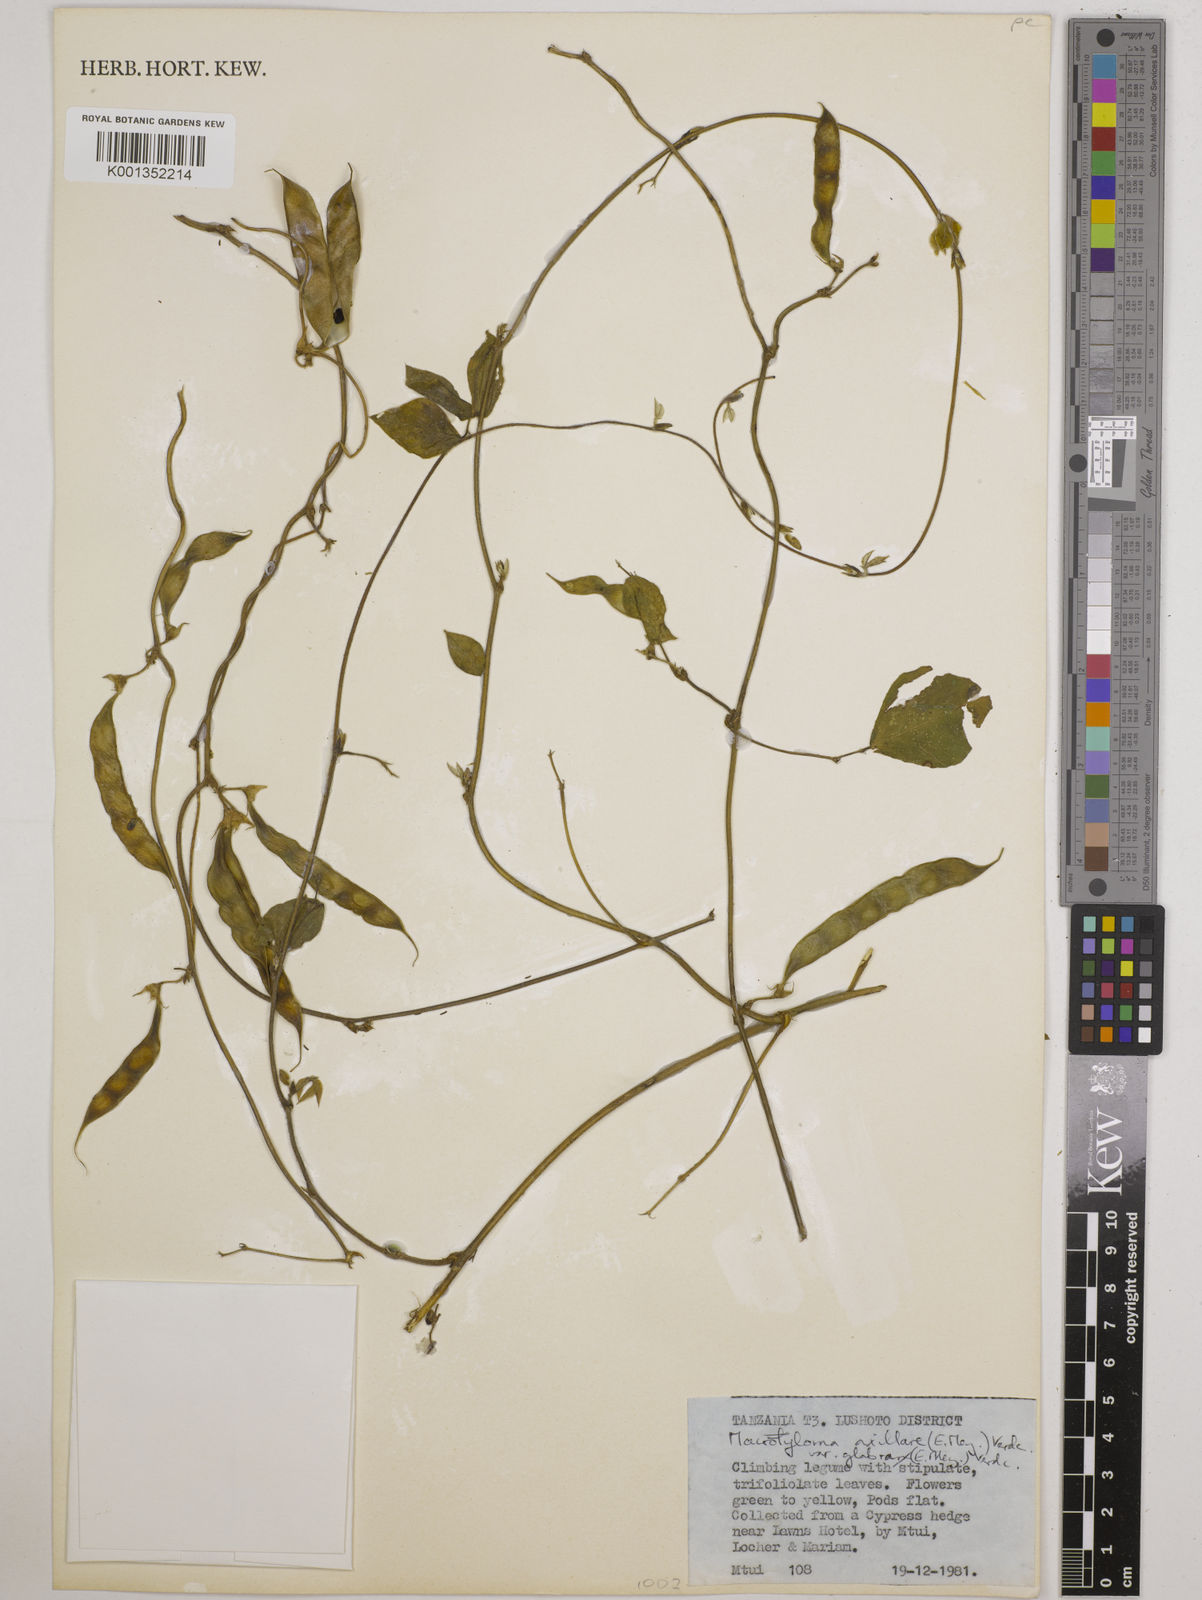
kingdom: Plantae
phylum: Tracheophyta
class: Magnoliopsida
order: Fabales
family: Fabaceae
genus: Macrotyloma
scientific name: Macrotyloma
